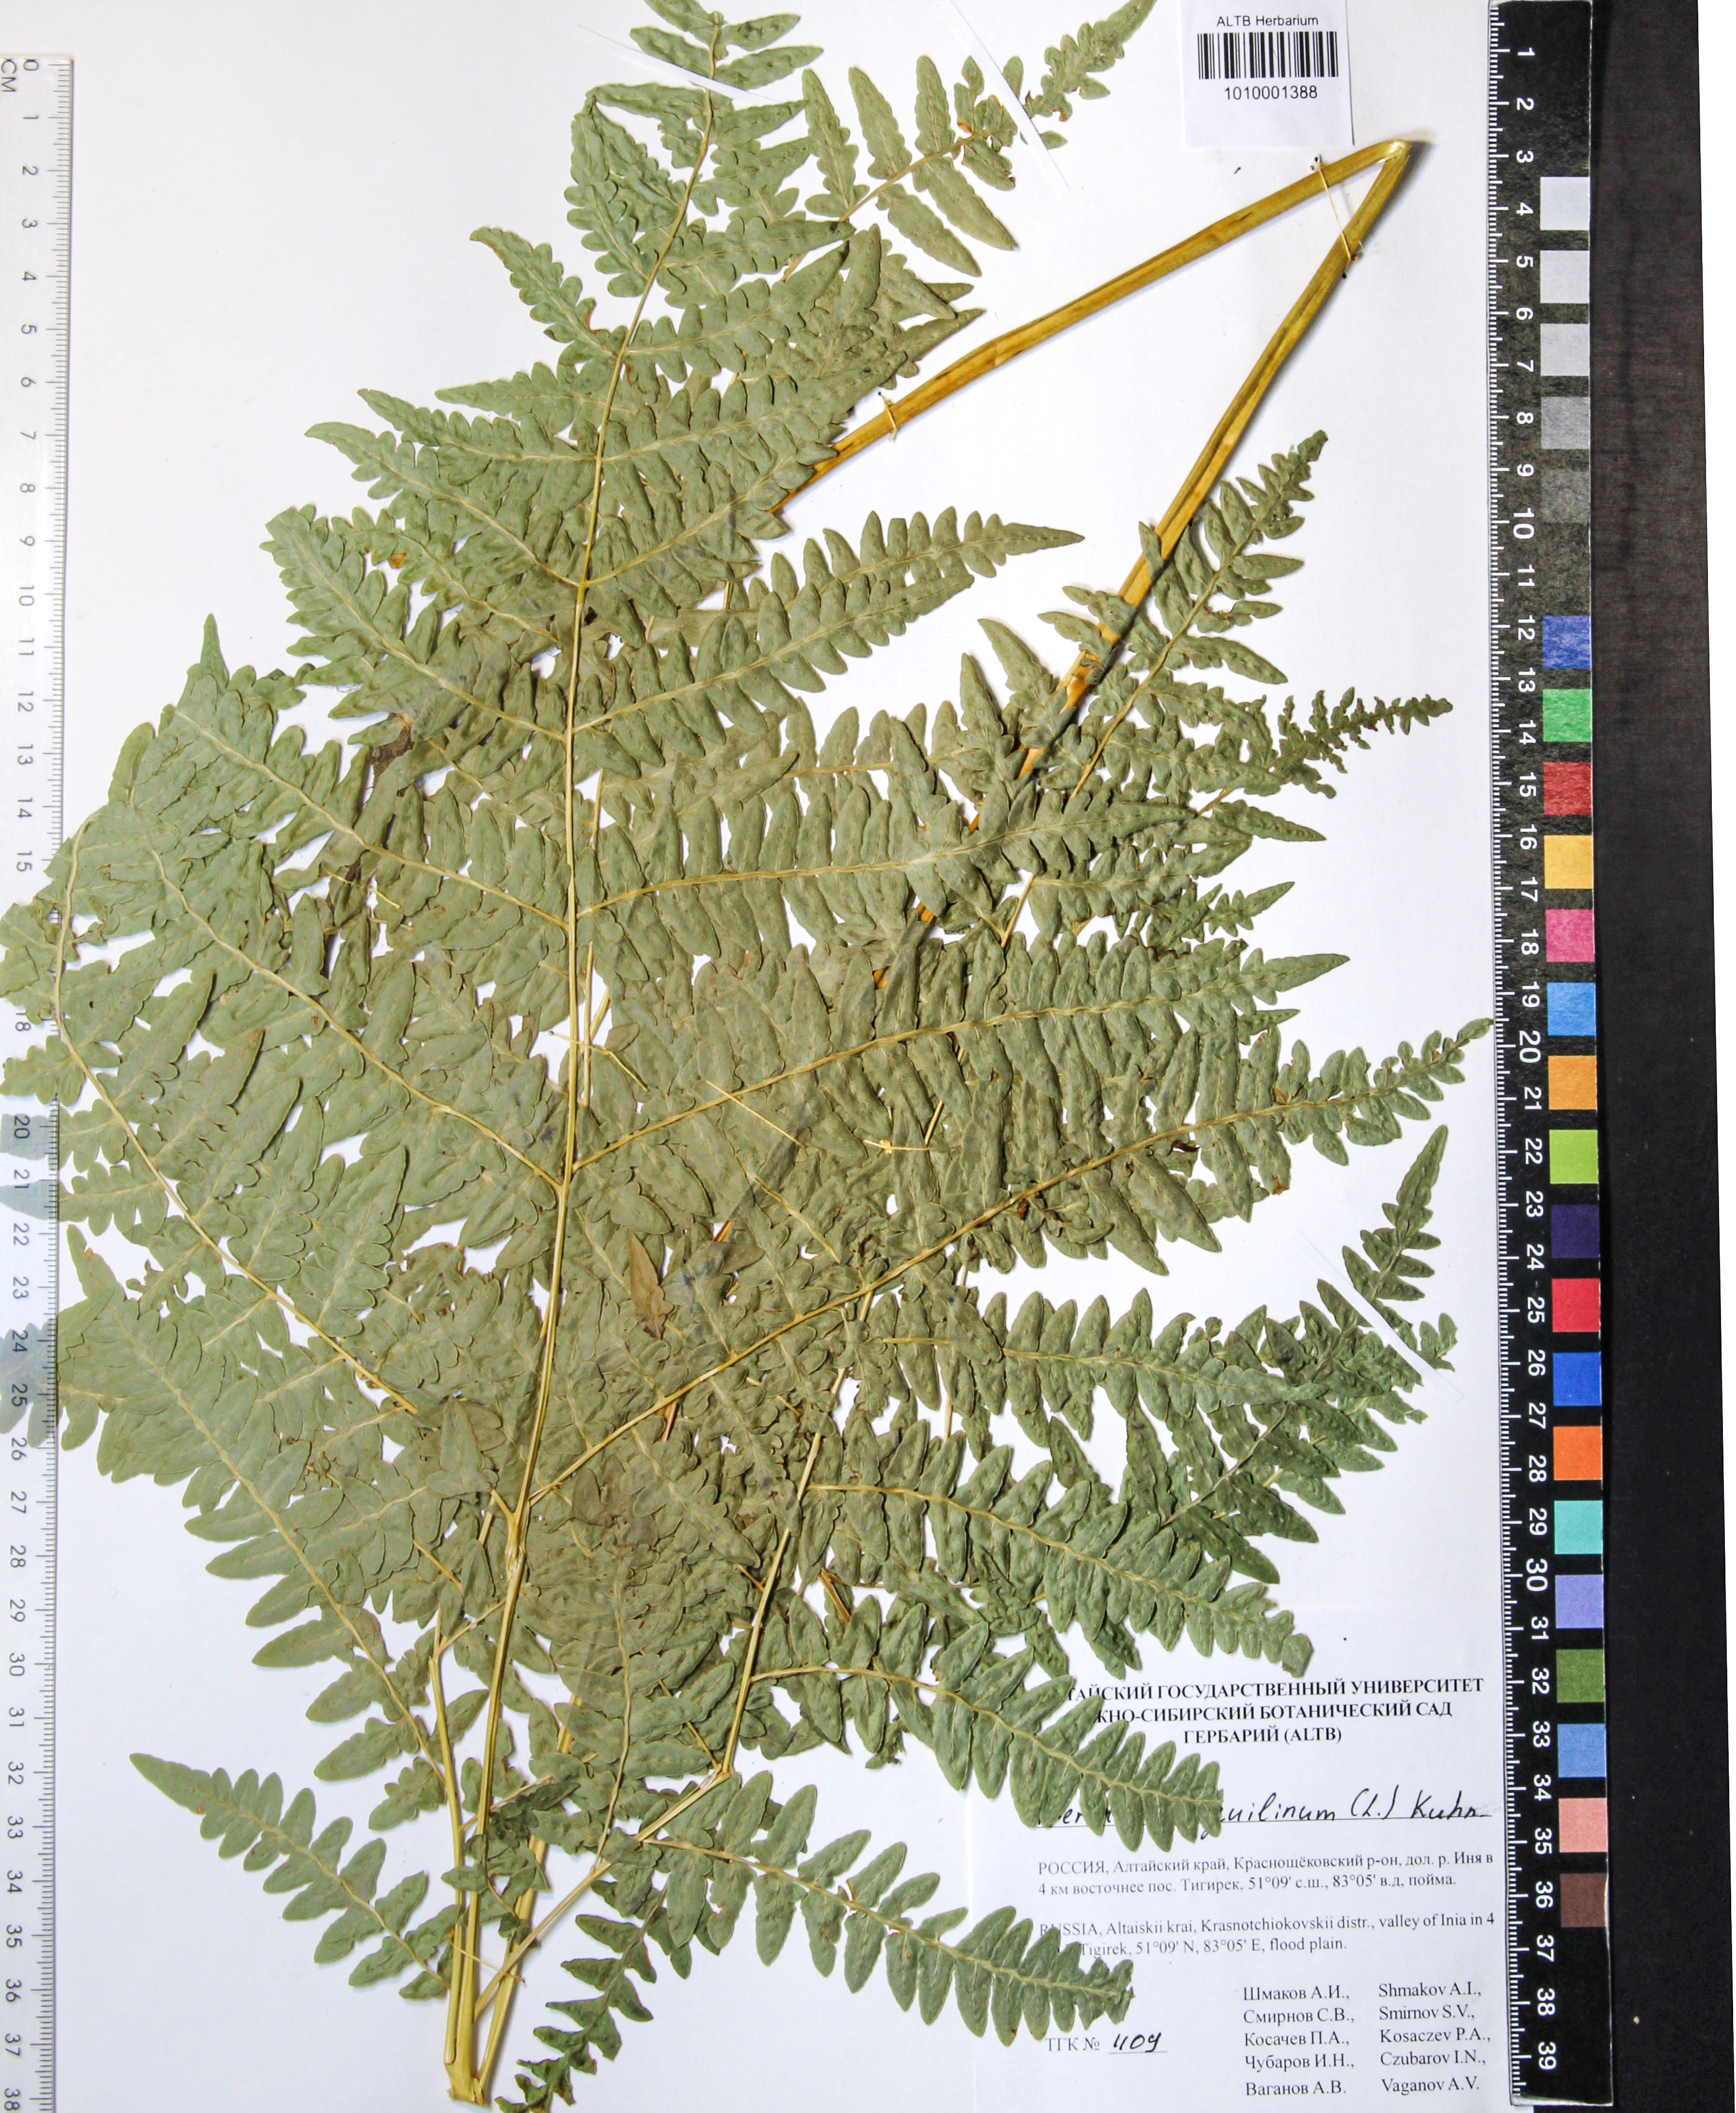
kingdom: Plantae
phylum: Tracheophyta
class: Polypodiopsida
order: Polypodiales
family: Dennstaedtiaceae
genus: Pteridium
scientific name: Pteridium aquilinum
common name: Bracken
